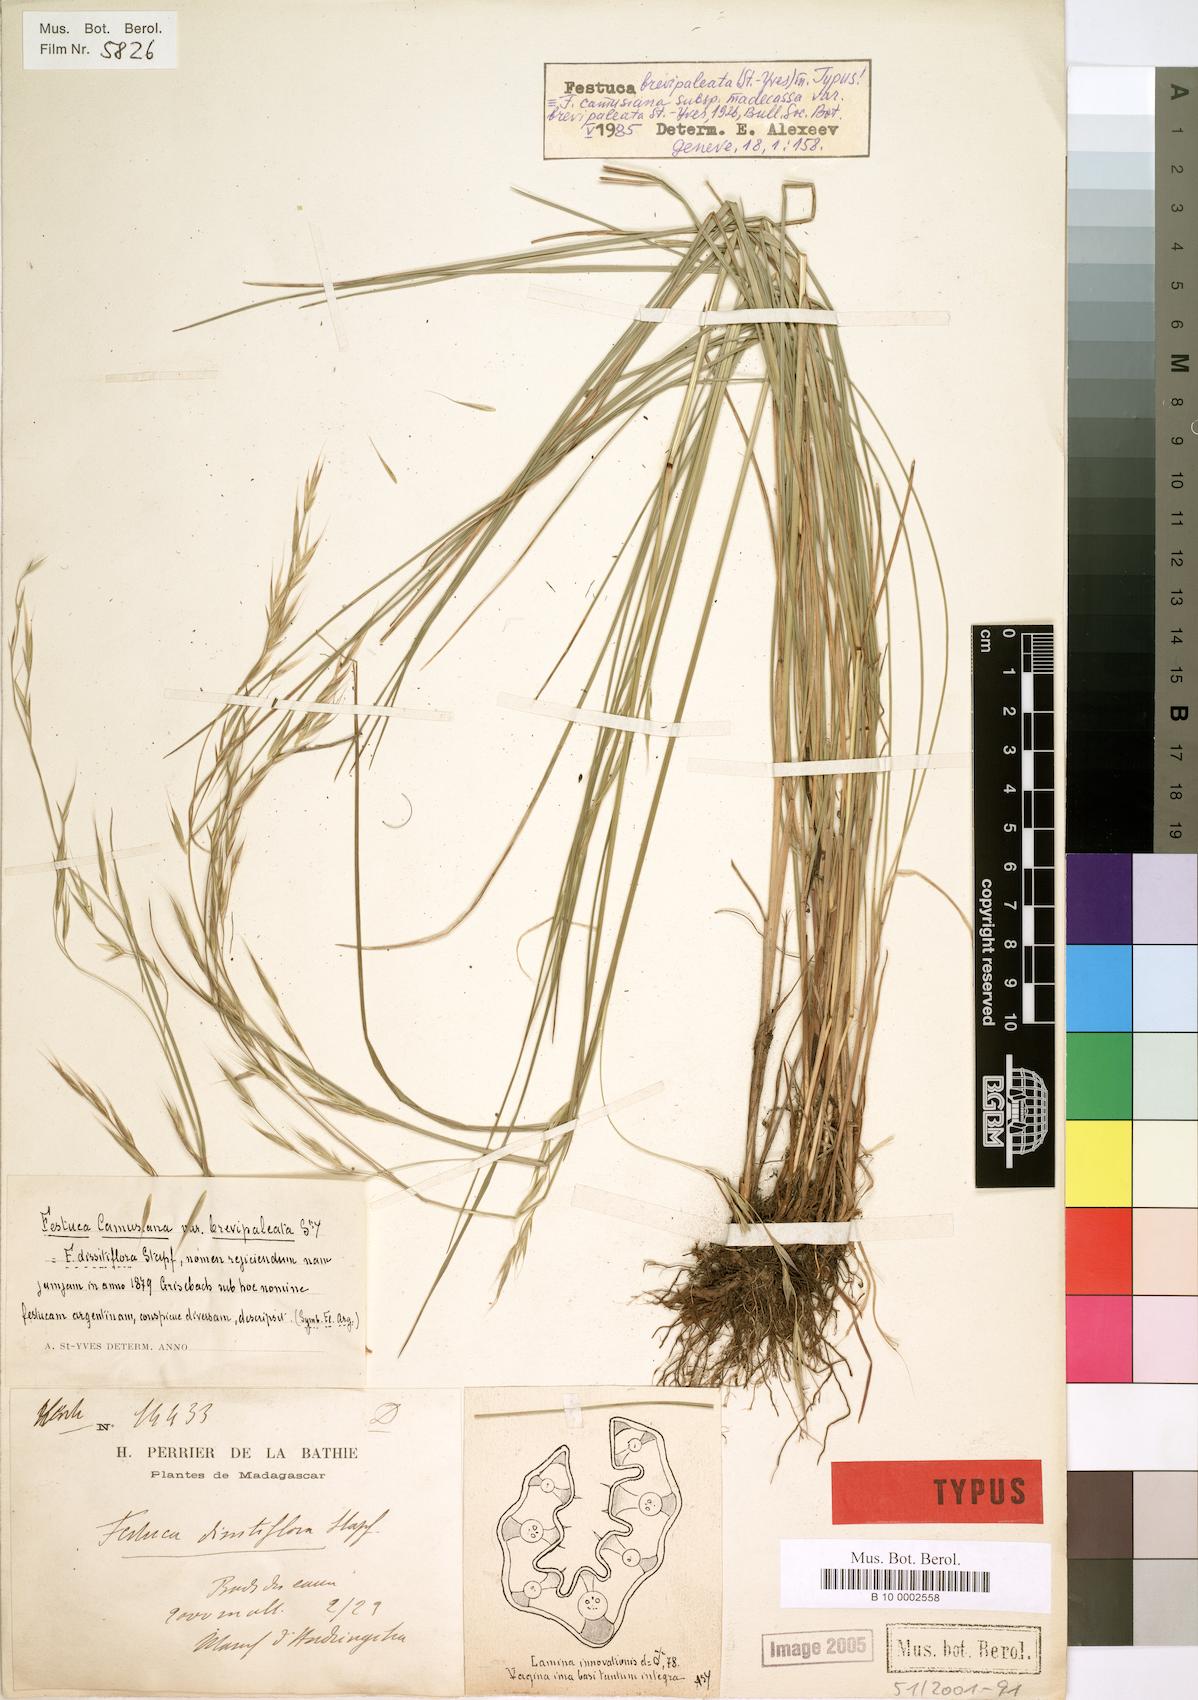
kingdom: Plantae
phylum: Tracheophyta
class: Liliopsida
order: Poales
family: Poaceae
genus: Festuca
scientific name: Festuca brevipaleata
